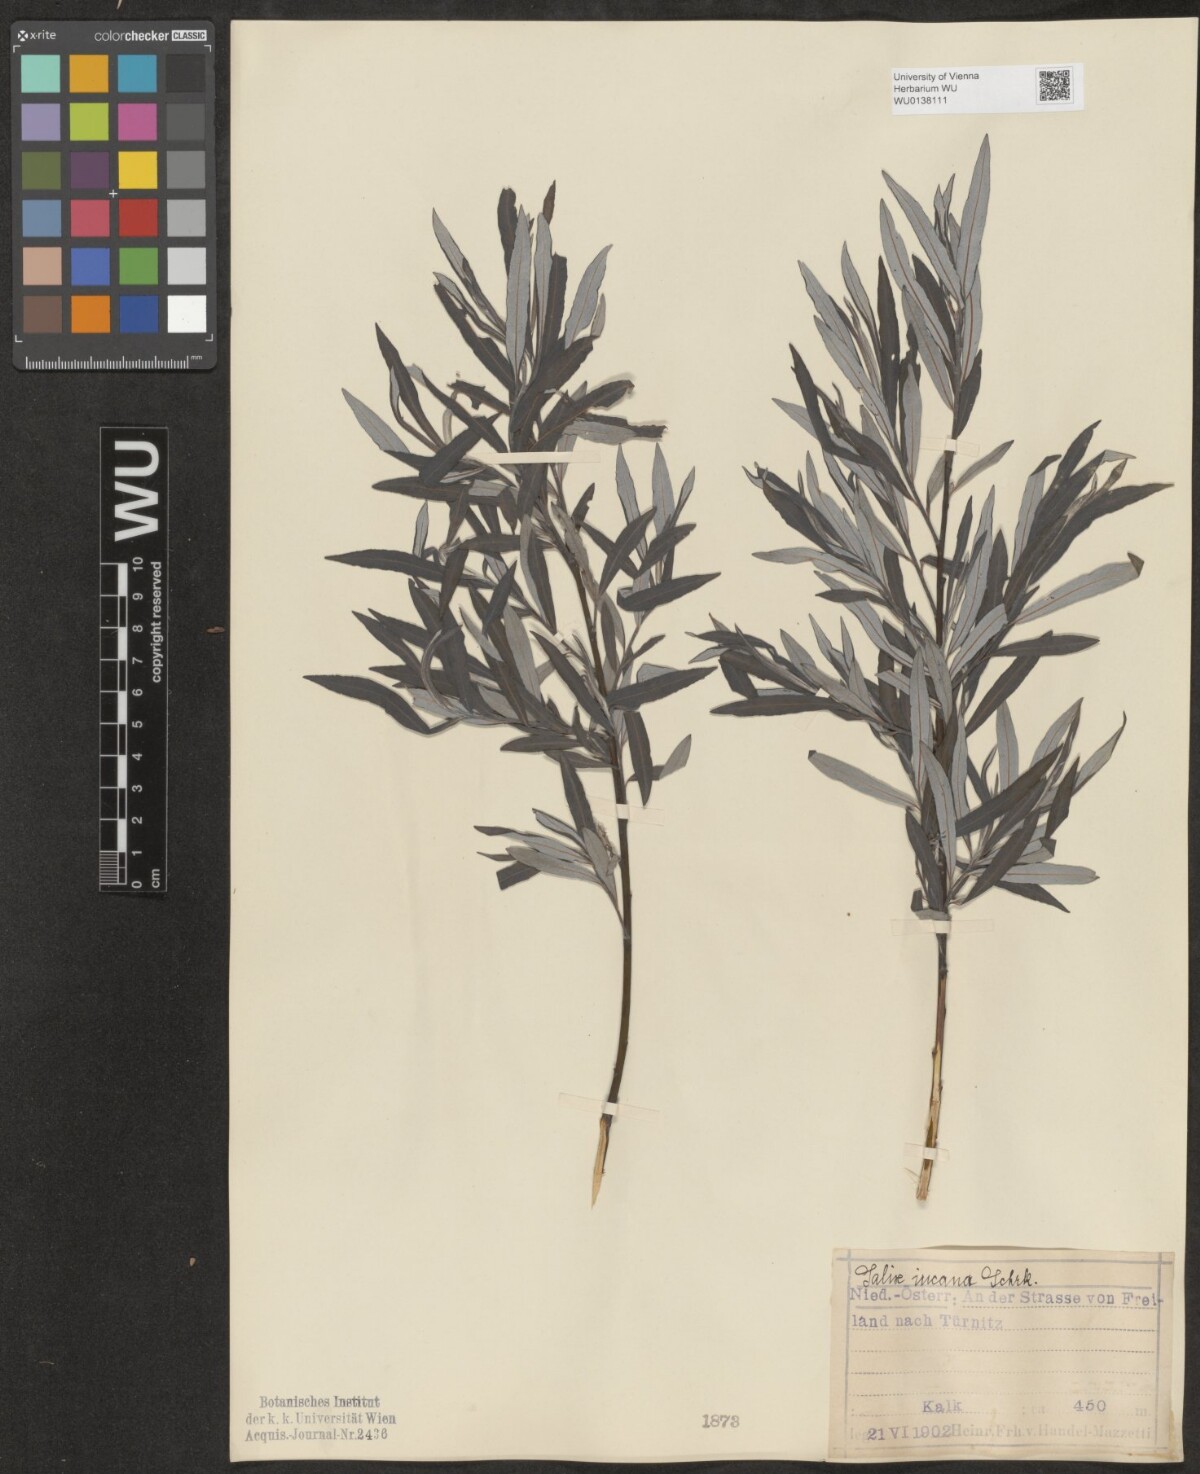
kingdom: Plantae
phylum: Tracheophyta
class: Magnoliopsida
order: Malpighiales
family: Salicaceae
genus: Salix
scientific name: Salix eleagnos
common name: Elaeagnus willow
